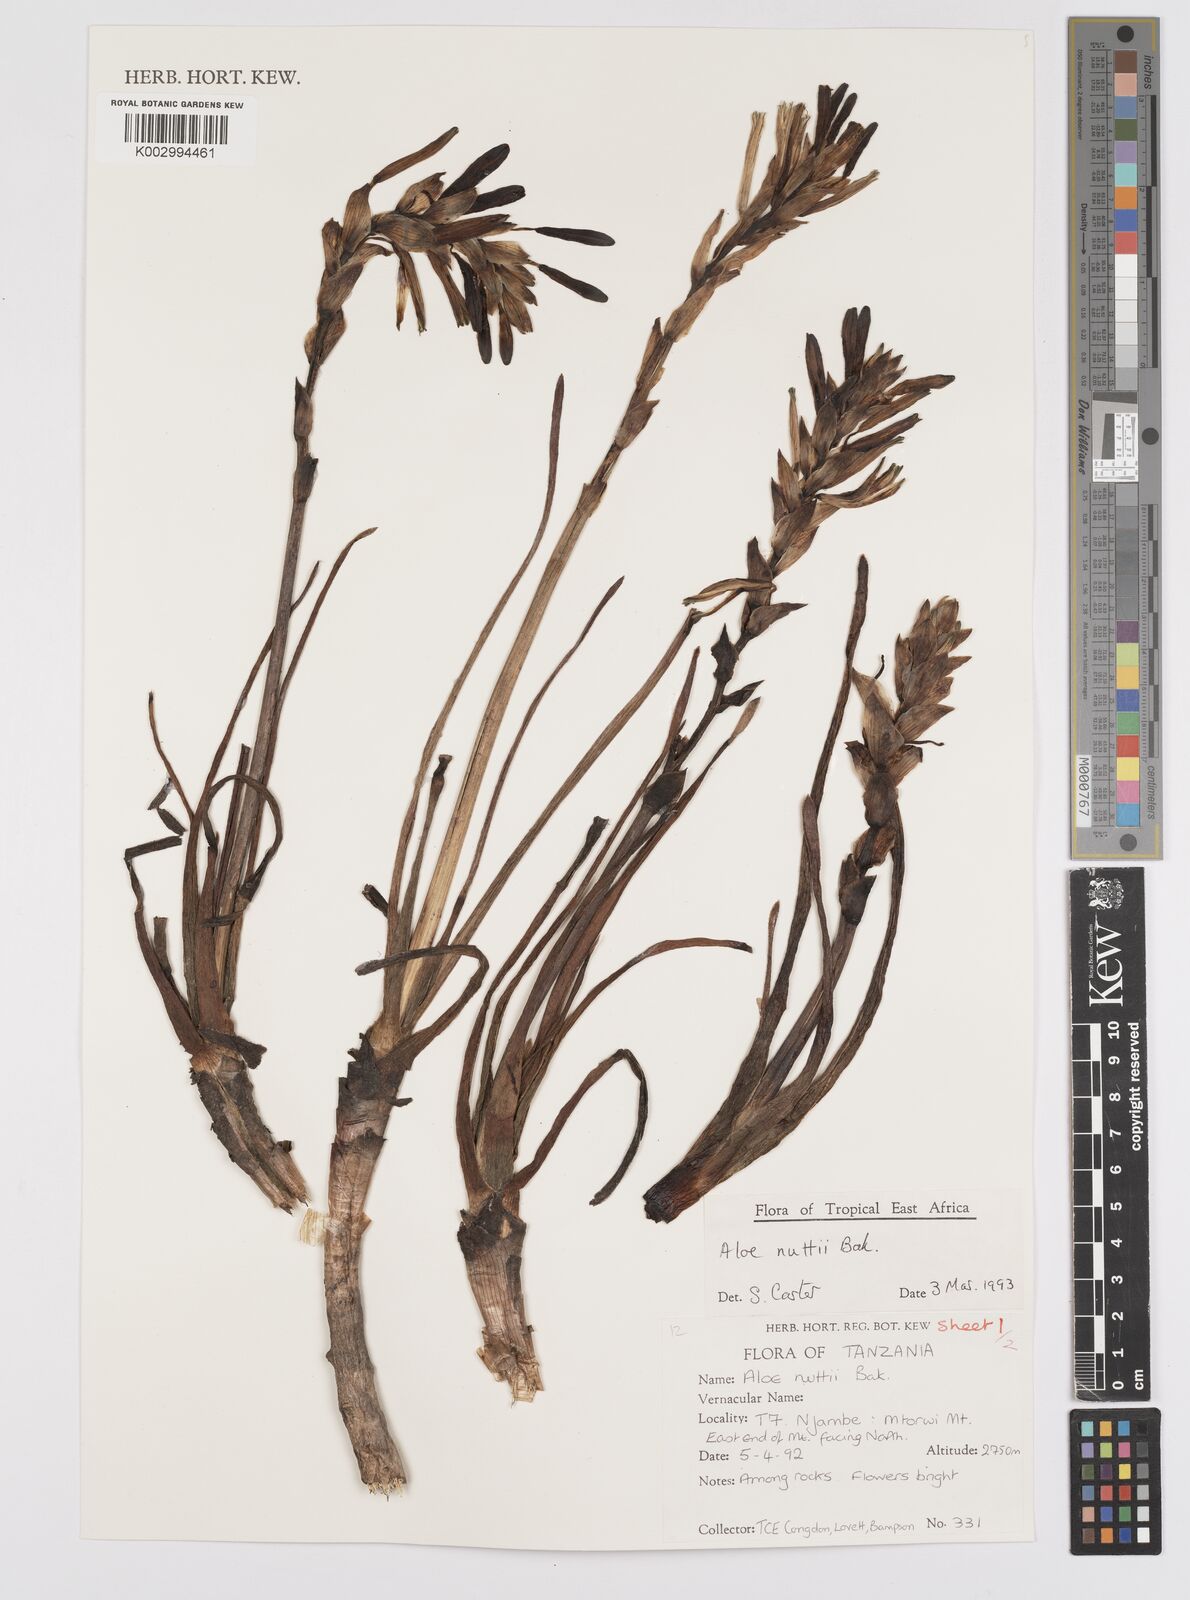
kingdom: Plantae
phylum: Tracheophyta
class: Liliopsida
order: Asparagales
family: Asphodelaceae
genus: Aloe
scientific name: Aloe nuttii
